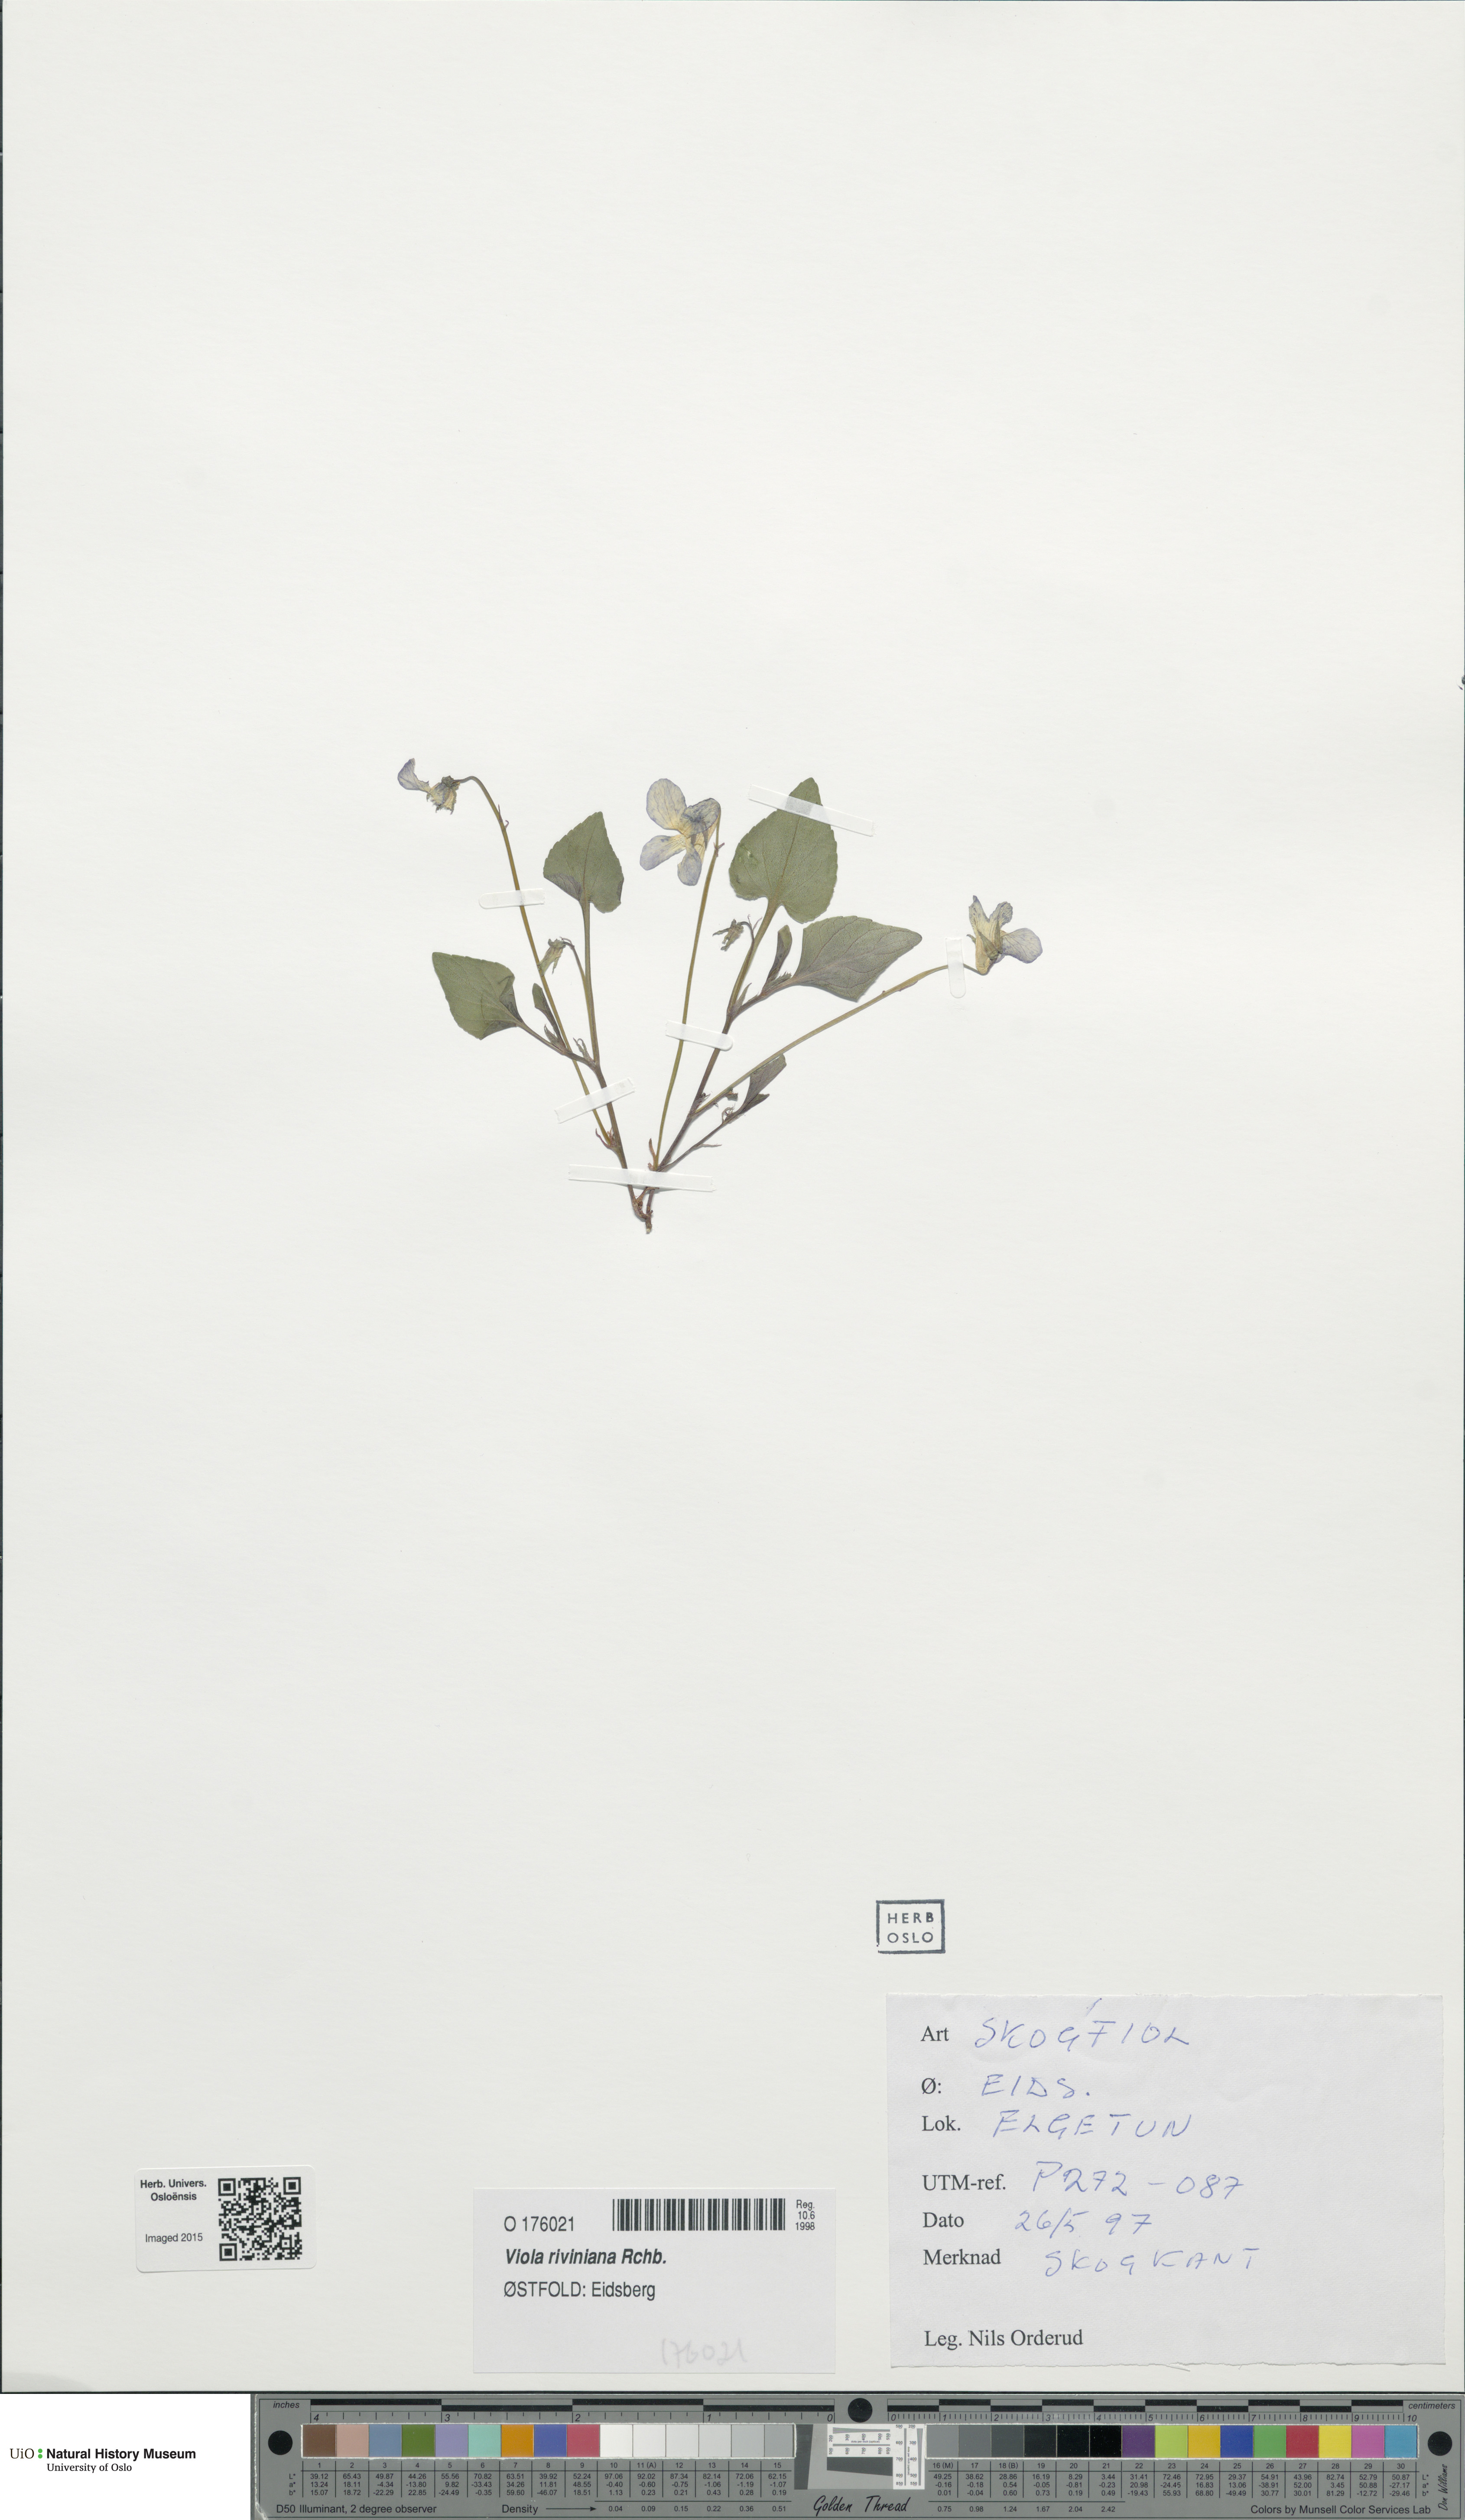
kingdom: Plantae
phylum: Tracheophyta
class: Magnoliopsida
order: Malpighiales
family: Violaceae
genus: Viola
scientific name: Viola riviniana
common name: Common dog-violet
